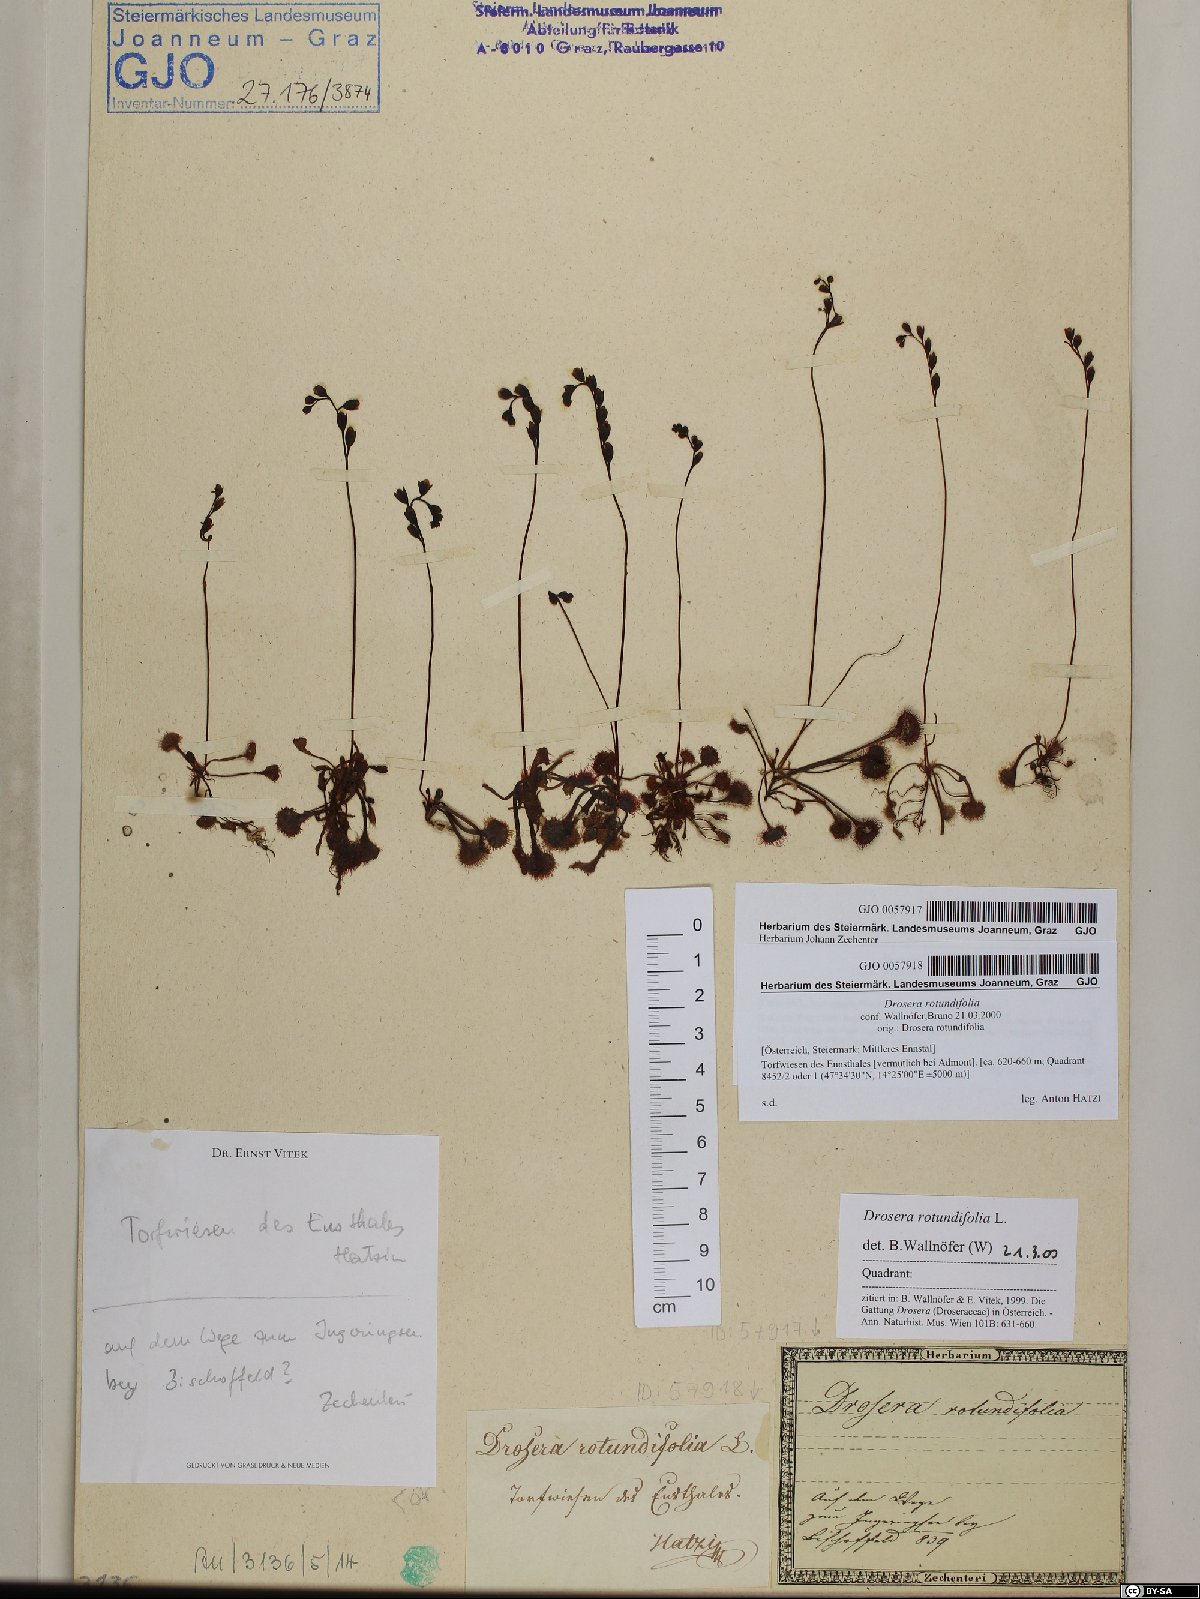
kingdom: Plantae
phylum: Tracheophyta
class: Magnoliopsida
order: Caryophyllales
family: Droseraceae
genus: Drosera
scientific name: Drosera rotundifolia
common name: Round-leaved sundew
